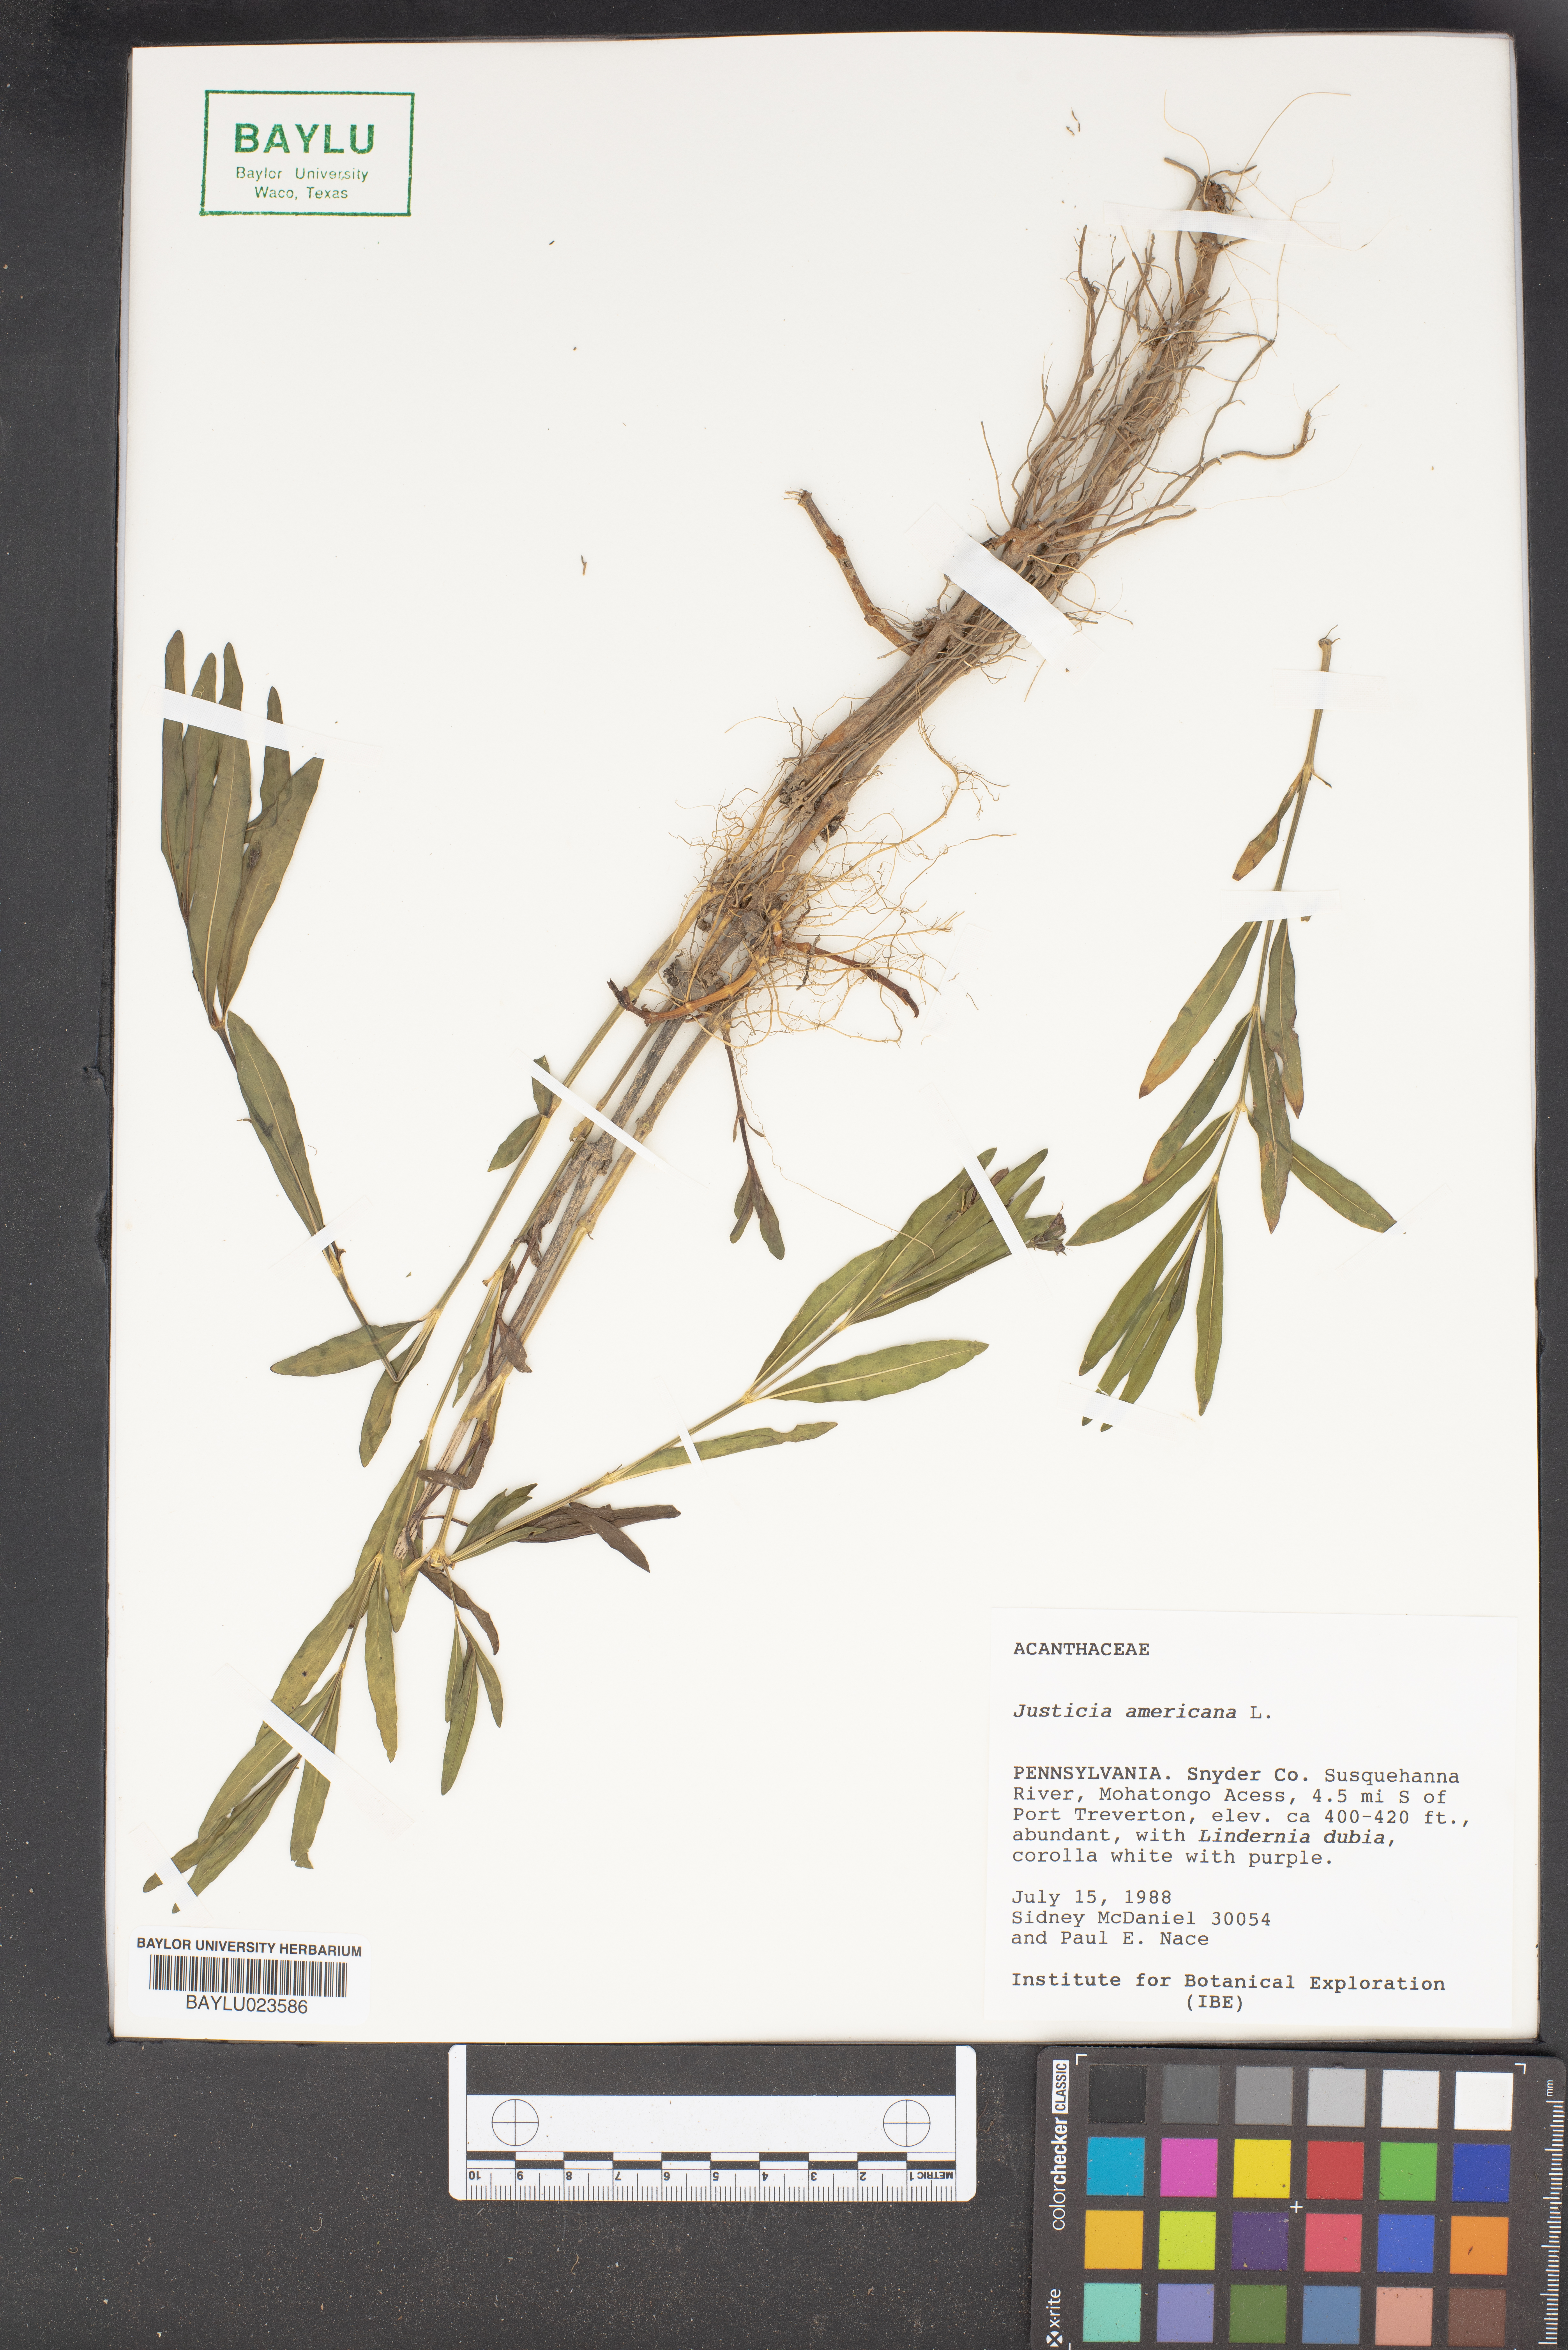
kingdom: Plantae
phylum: Tracheophyta
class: Magnoliopsida
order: Lamiales
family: Acanthaceae
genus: Dianthera
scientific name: Dianthera americana
